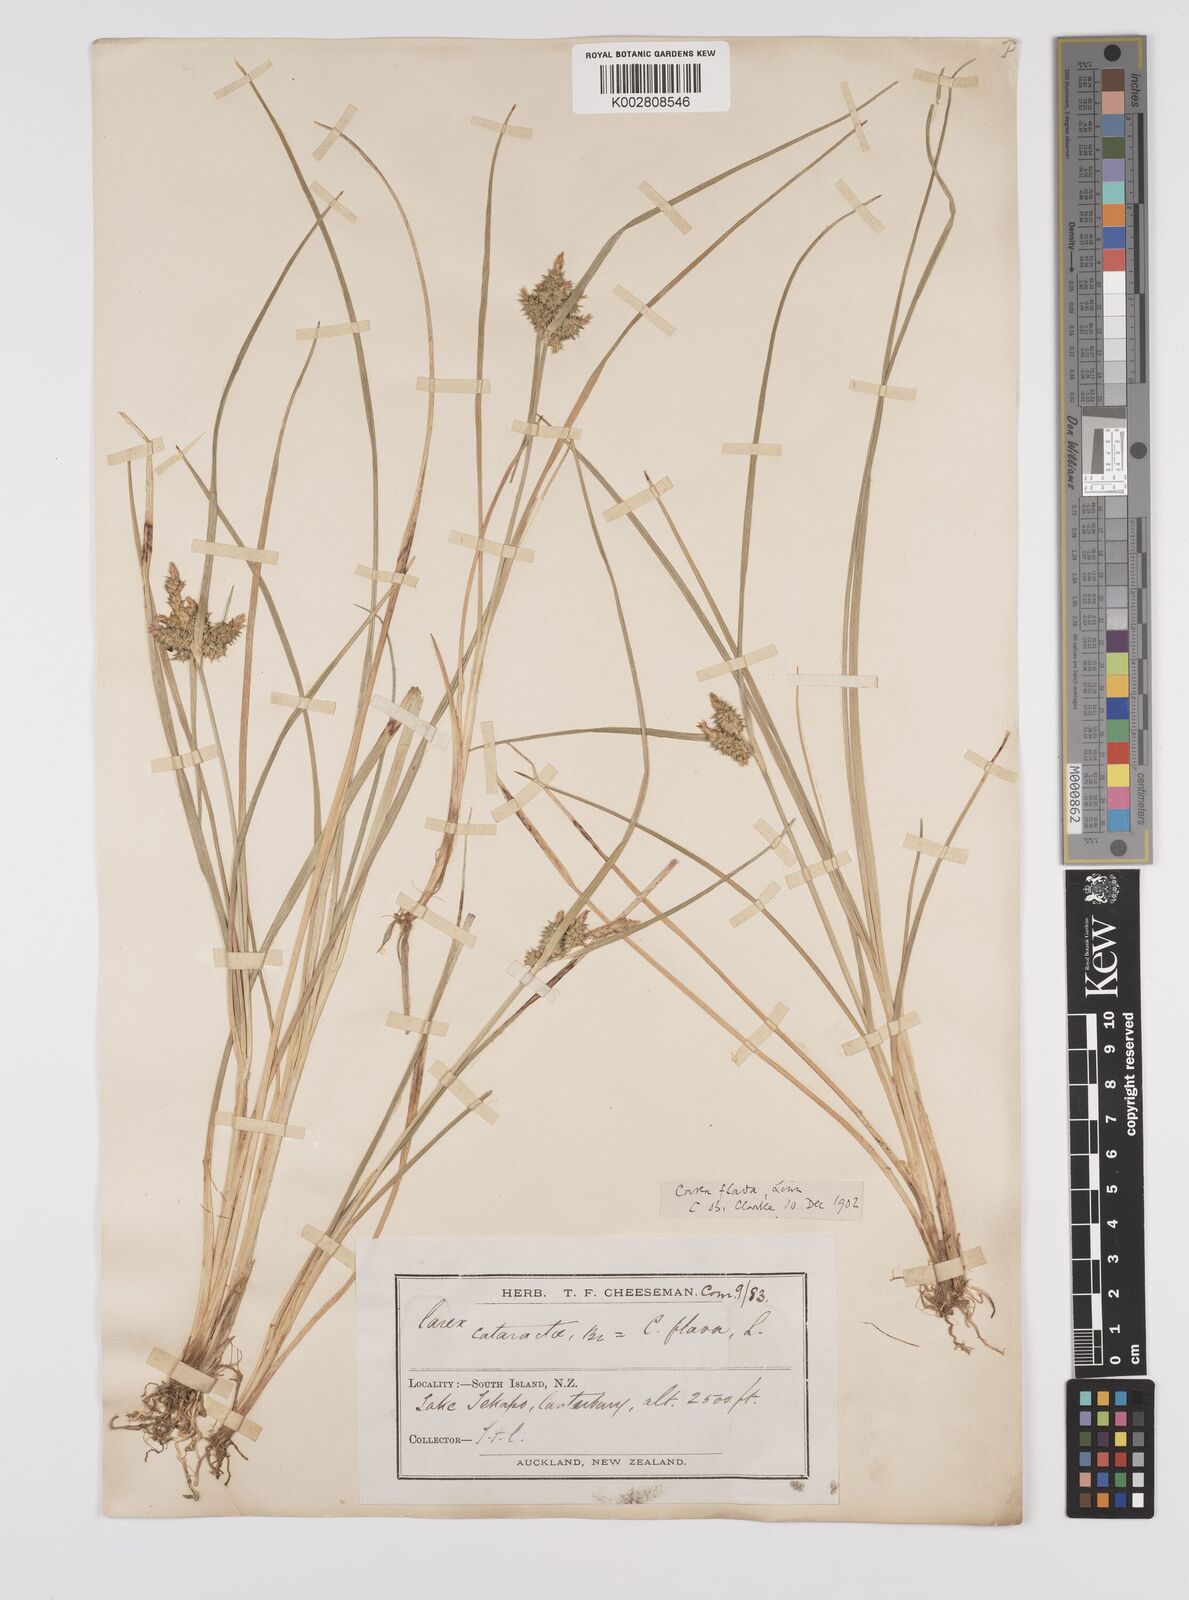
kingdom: Plantae
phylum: Tracheophyta
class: Liliopsida
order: Poales
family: Cyperaceae
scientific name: Cyperaceae
